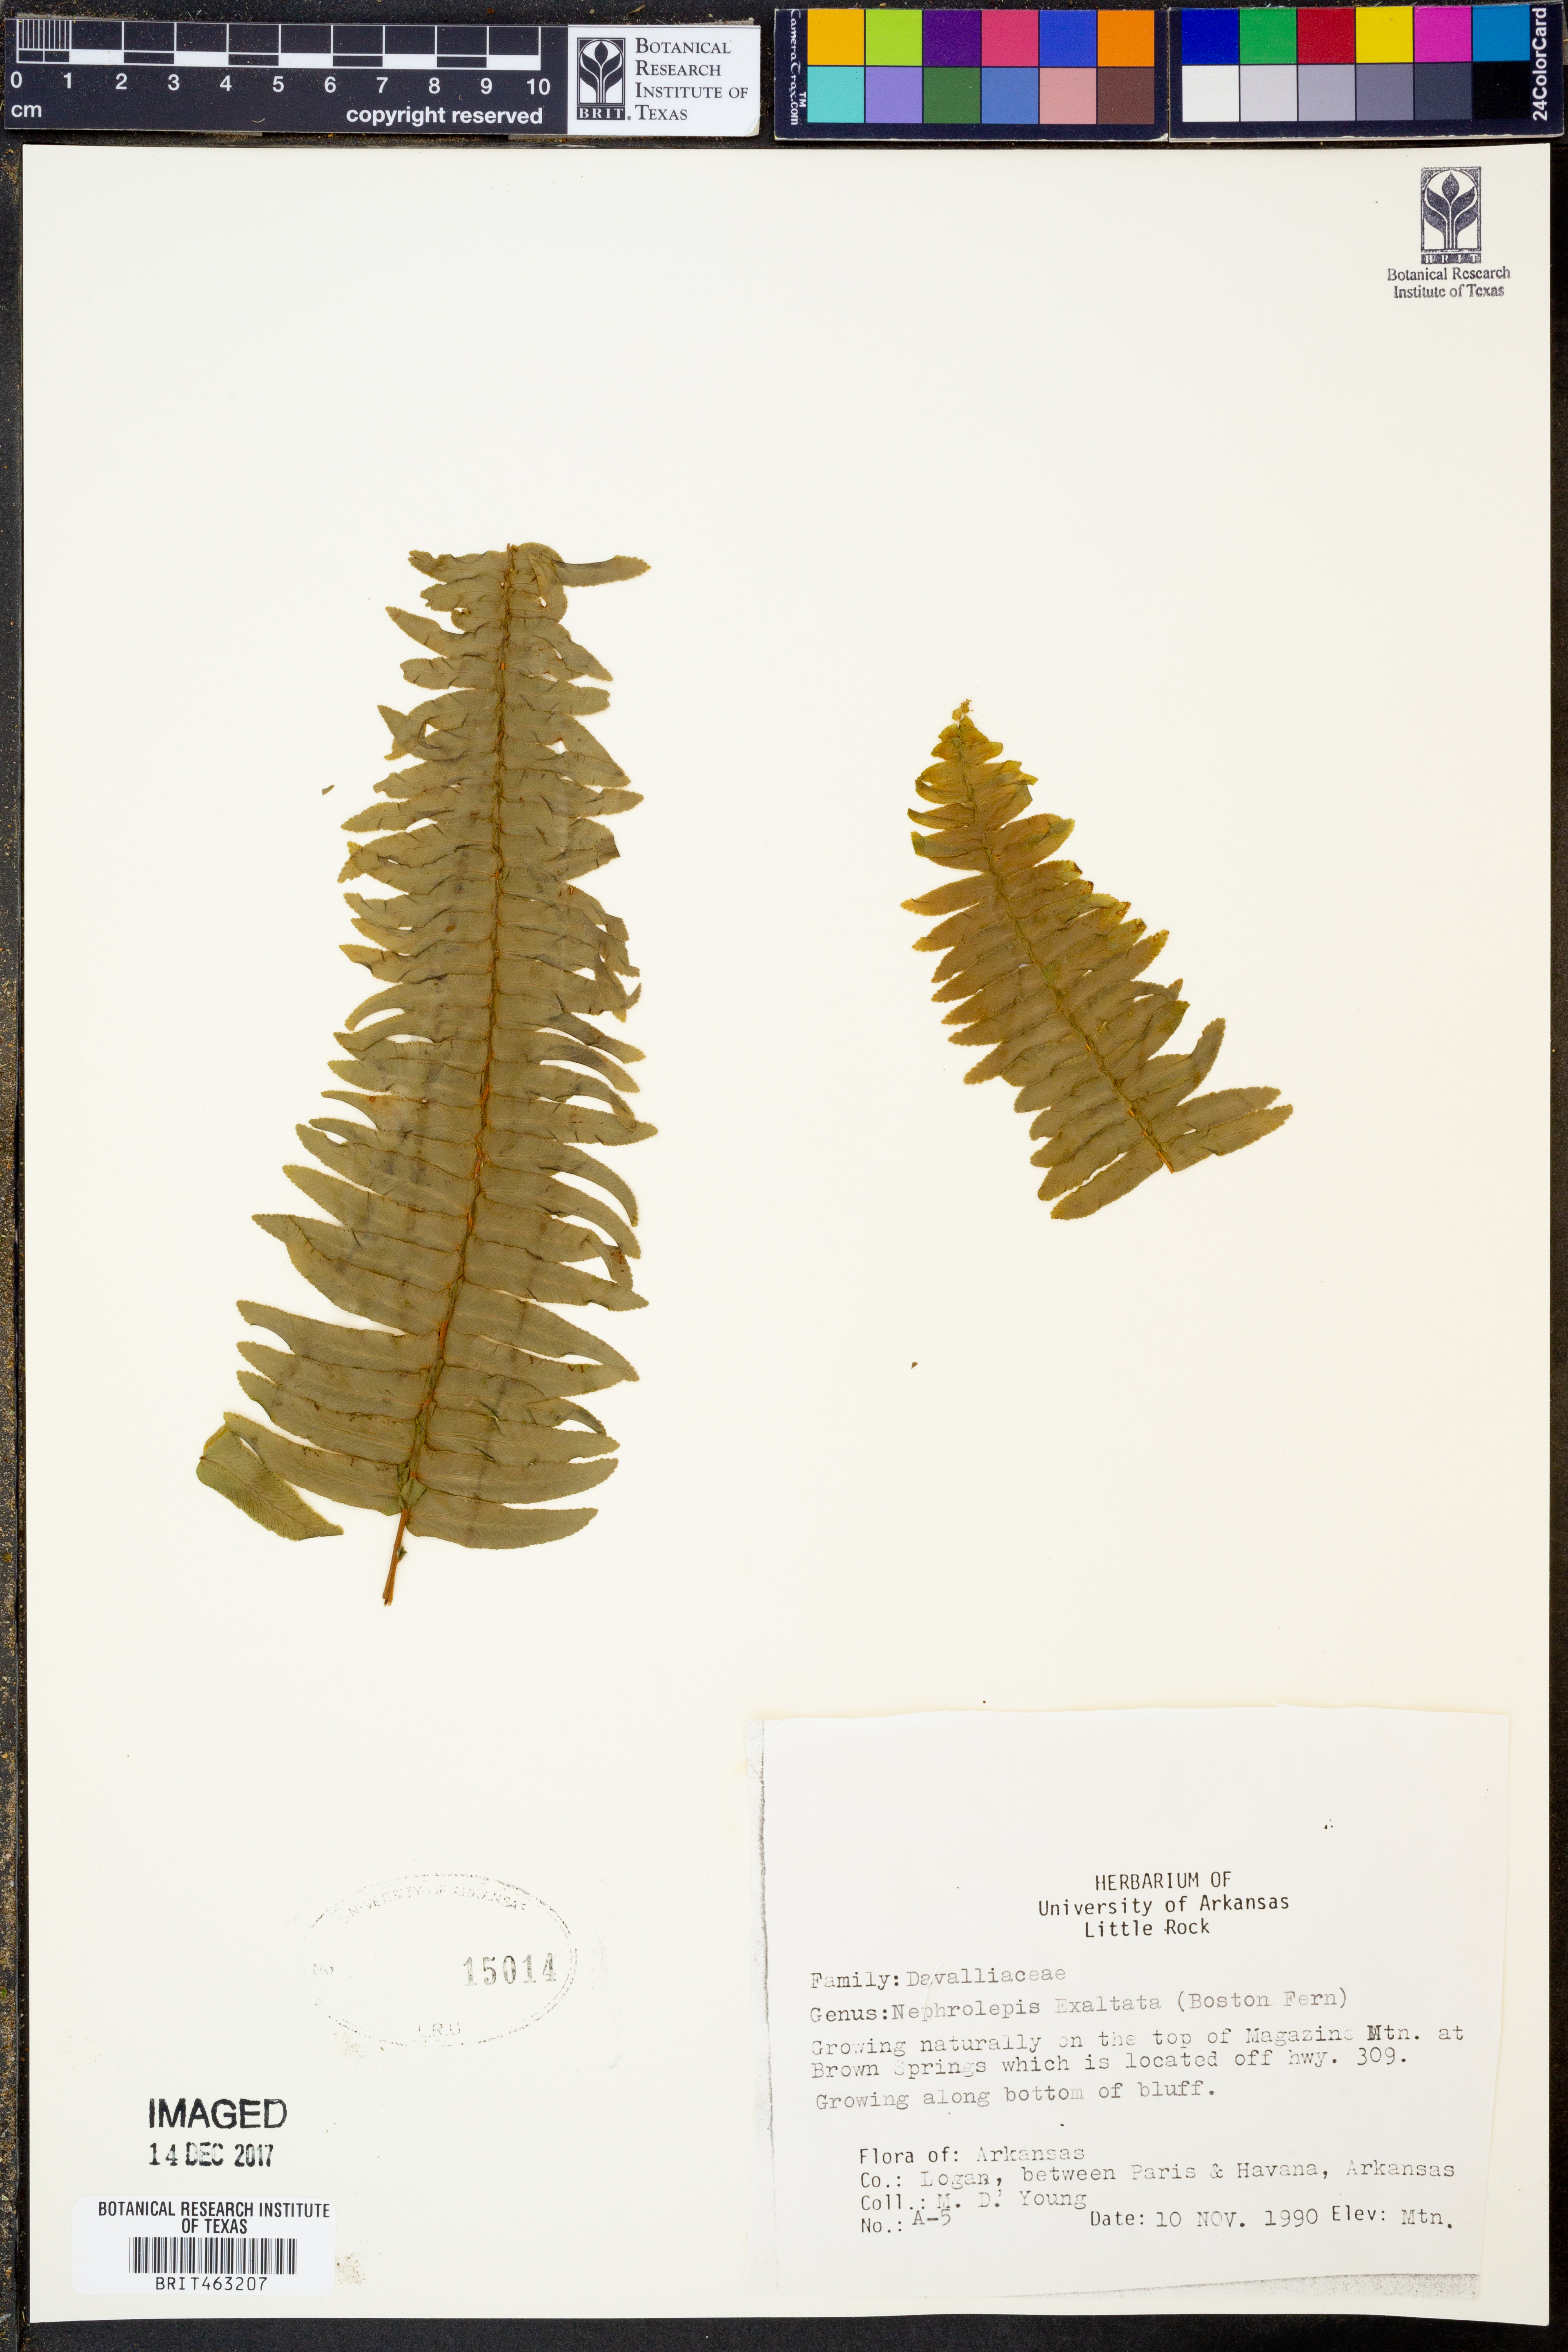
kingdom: Plantae
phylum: Tracheophyta
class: Polypodiopsida
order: Polypodiales
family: Nephrolepidaceae
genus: Nephrolepis
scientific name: Nephrolepis exaltata
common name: Sword fern
